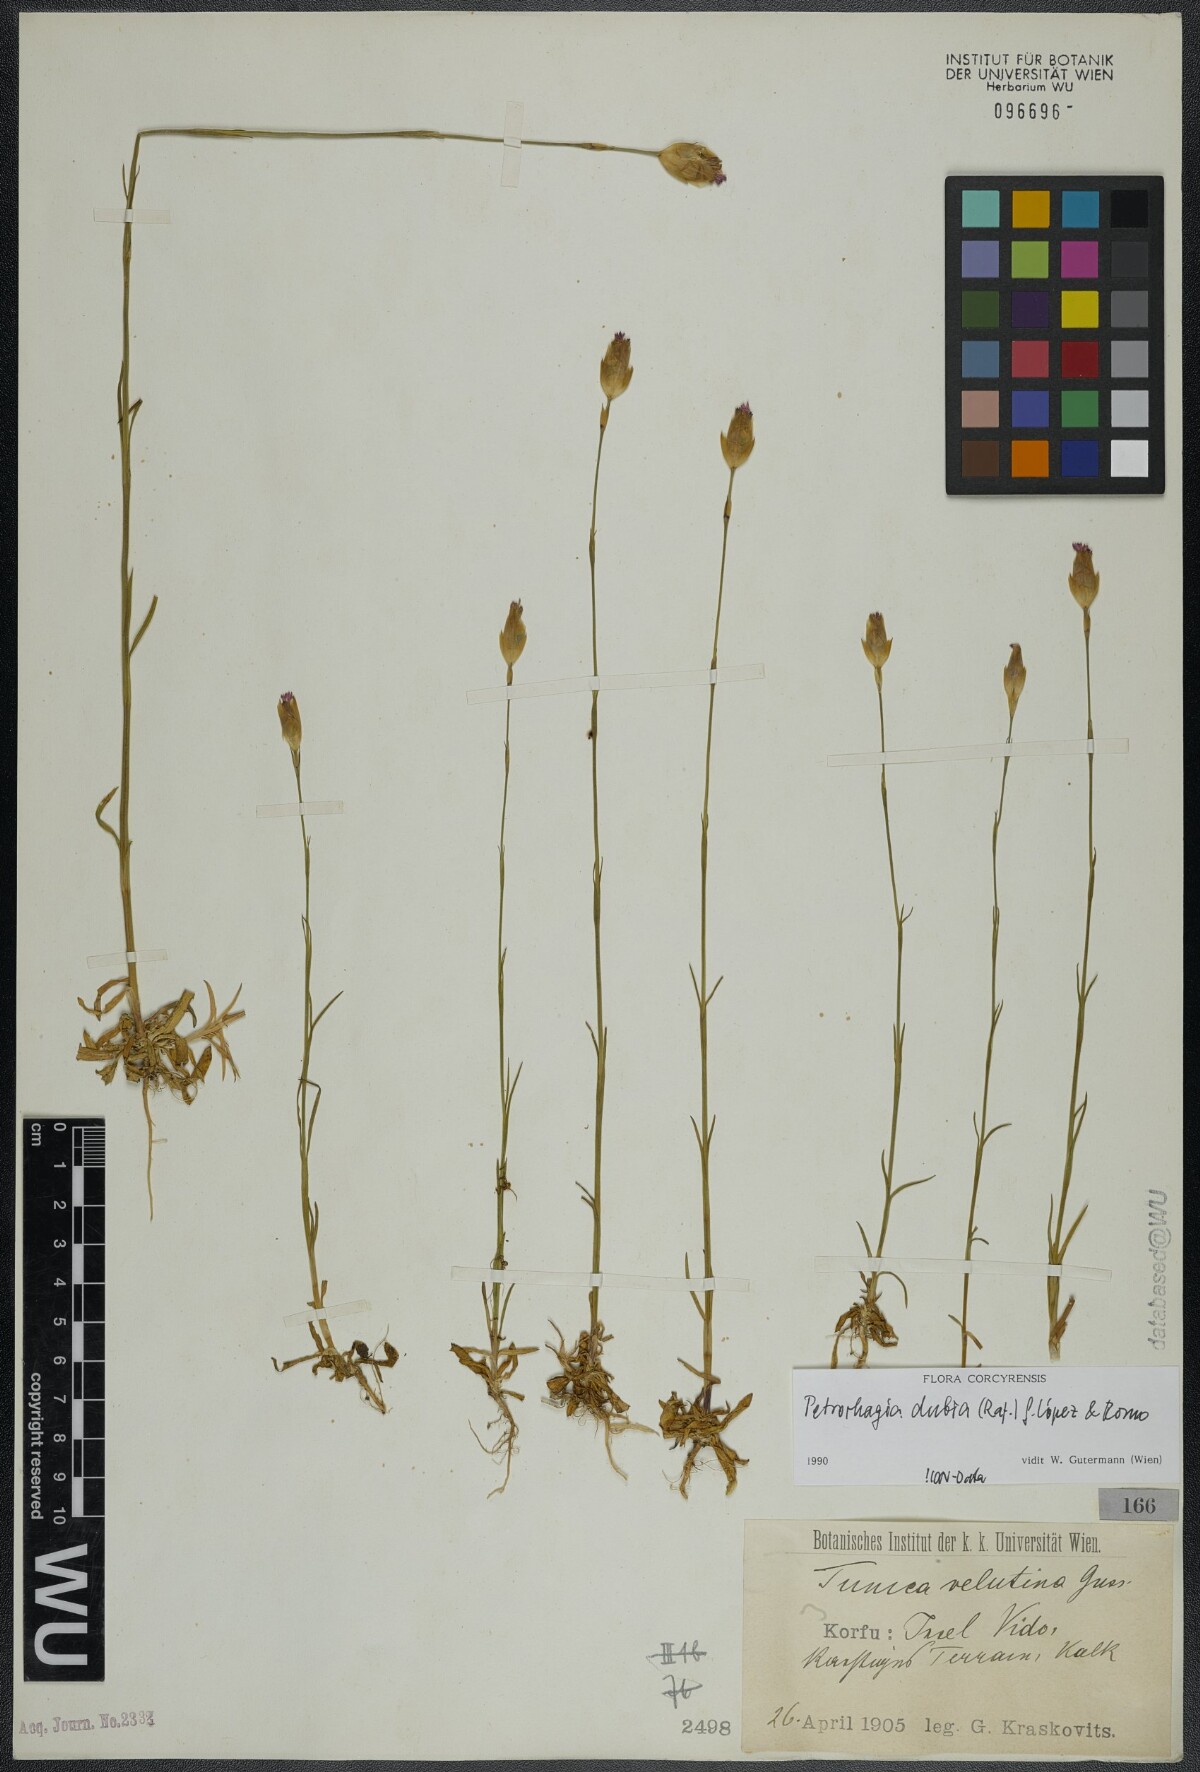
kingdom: Plantae
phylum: Tracheophyta
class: Magnoliopsida
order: Caryophyllales
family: Caryophyllaceae
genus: Petrorhagia
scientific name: Petrorhagia dubia
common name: Hairypink
